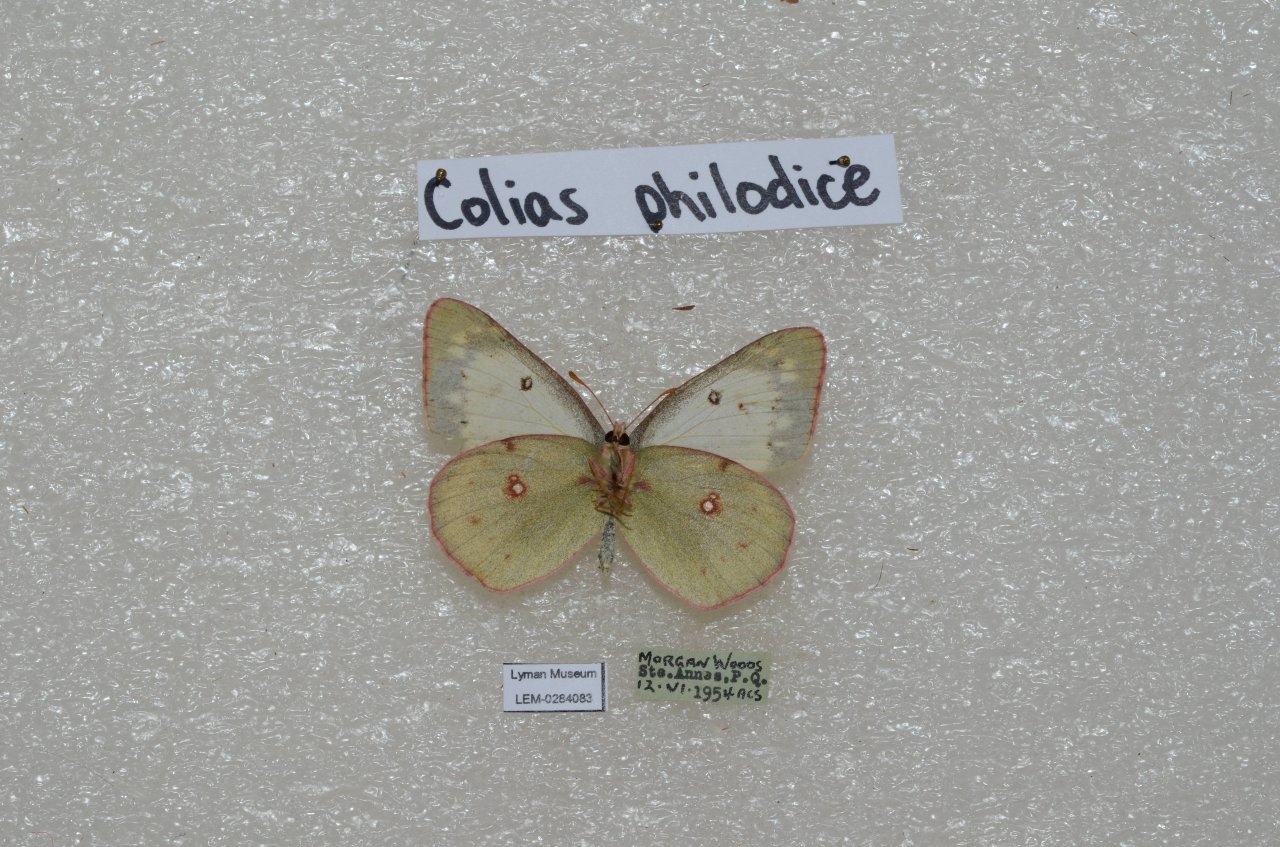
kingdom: Animalia
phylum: Arthropoda
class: Insecta
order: Lepidoptera
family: Pieridae
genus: Colias
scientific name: Colias philodice
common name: Clouded Sulphur
